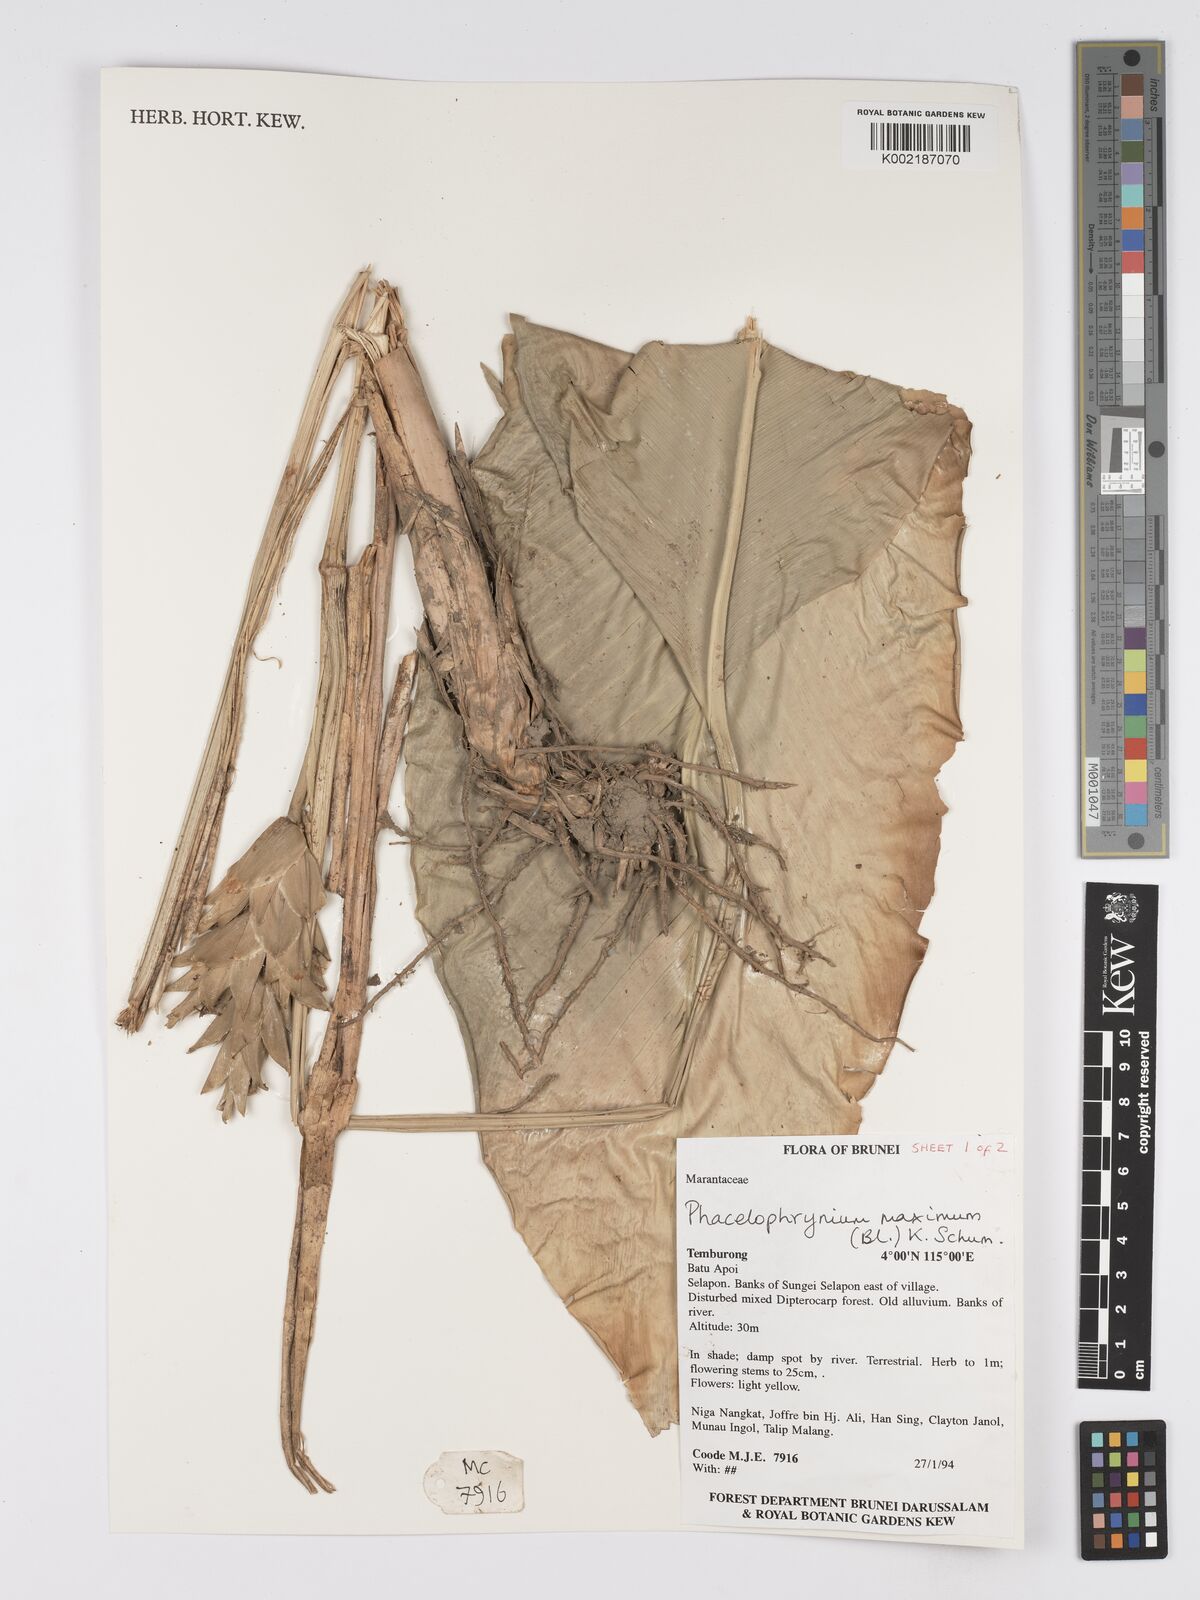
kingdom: Plantae
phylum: Tracheophyta
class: Liliopsida
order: Zingiberales
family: Marantaceae
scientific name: Marantaceae
